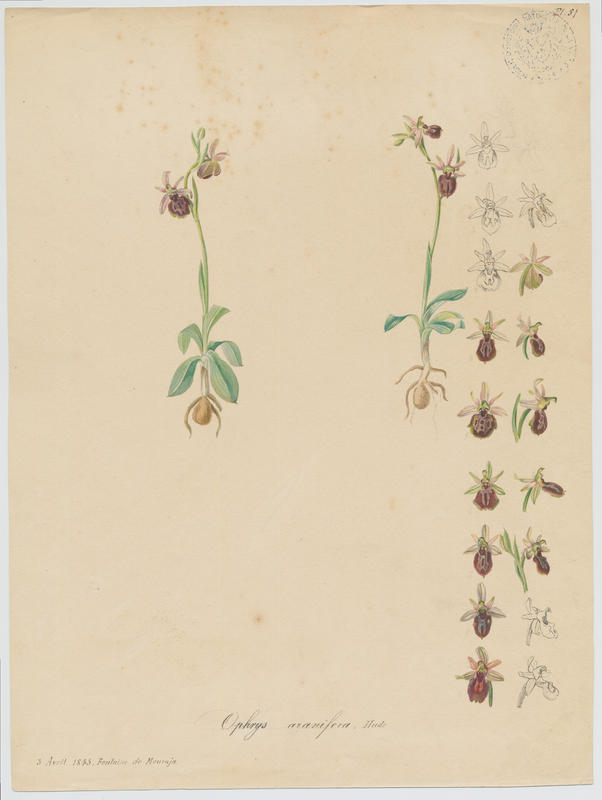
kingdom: Plantae
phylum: Tracheophyta
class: Liliopsida
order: Asparagales
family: Orchidaceae
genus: Ophrys
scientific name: Ophrys sphegodes
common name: Early spider-orchid
